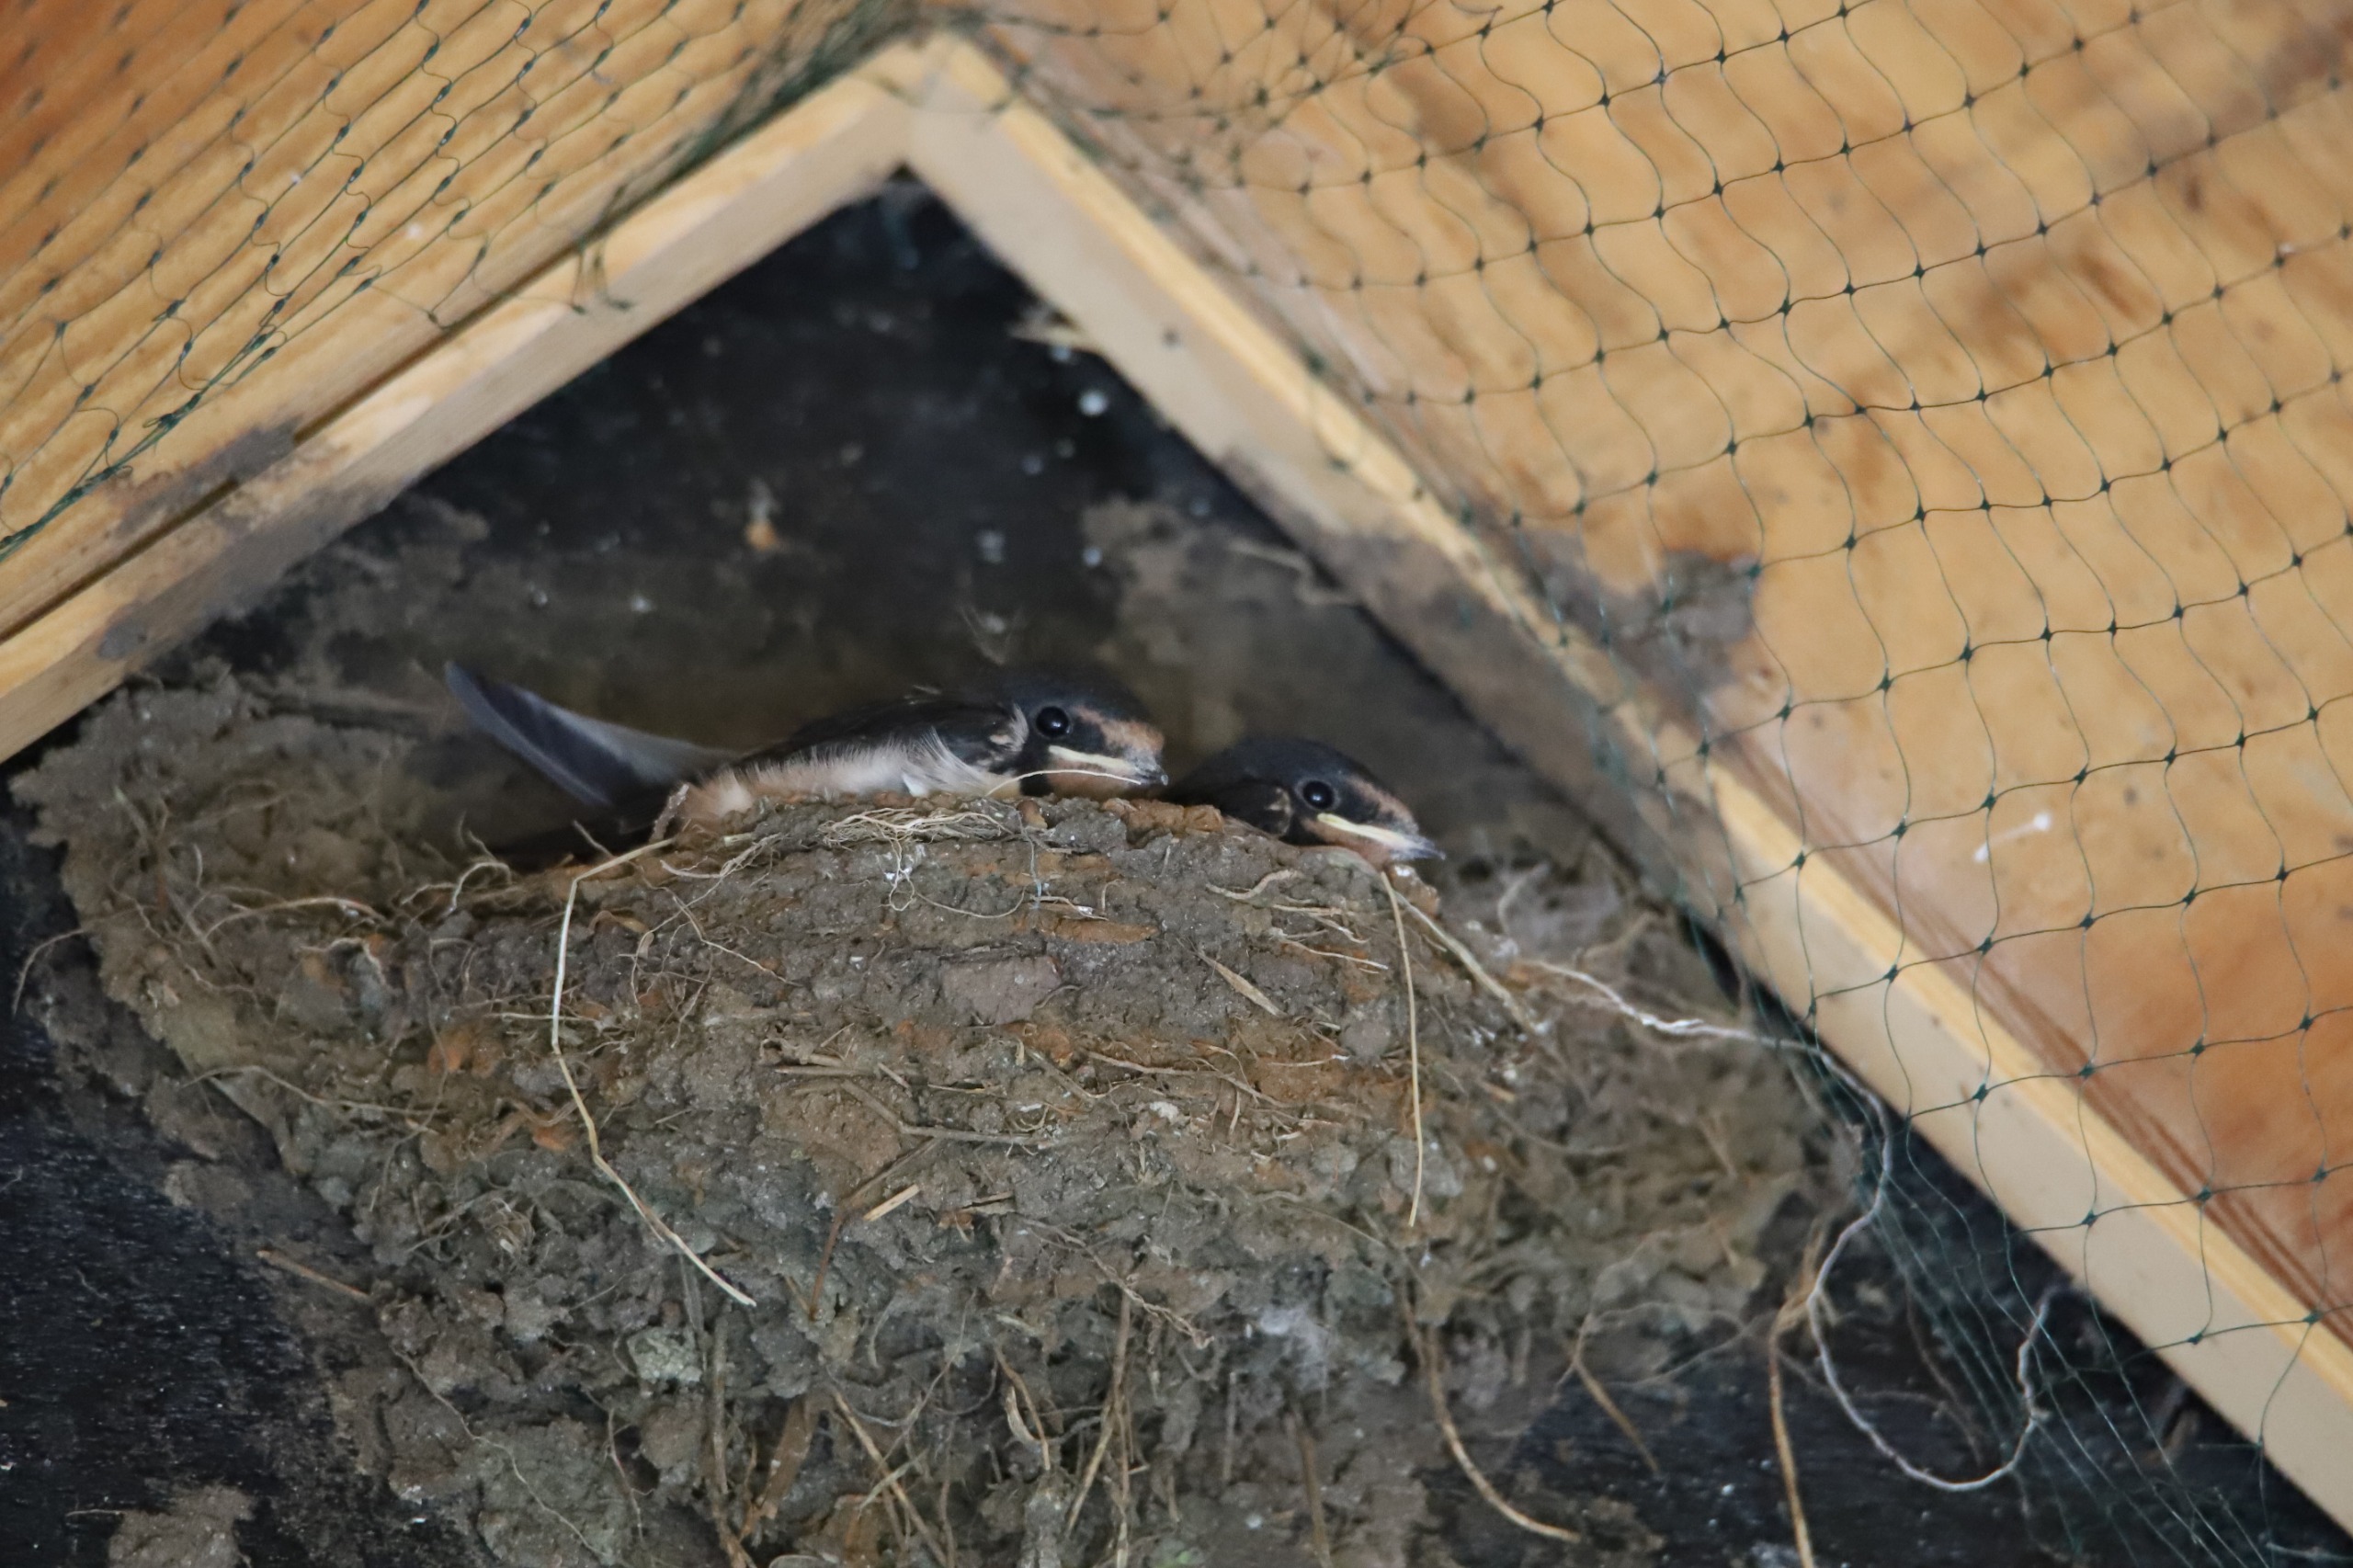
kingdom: Animalia
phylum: Chordata
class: Aves
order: Passeriformes
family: Hirundinidae
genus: Hirundo
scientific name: Hirundo rustica
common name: Landsvale
